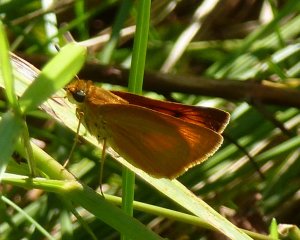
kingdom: Animalia
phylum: Arthropoda
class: Insecta
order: Lepidoptera
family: Hesperiidae
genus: Atrytone
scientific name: Atrytone delaware
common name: Delaware Skipper
